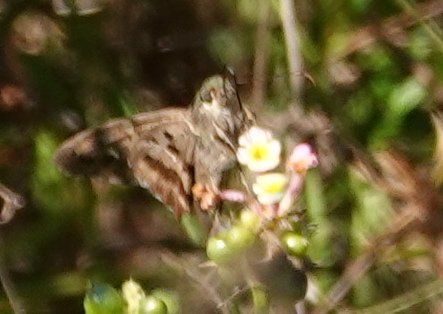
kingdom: Animalia
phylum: Arthropoda
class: Insecta
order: Lepidoptera
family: Hesperiidae
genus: Urbanus
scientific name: Urbanus proteus
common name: Long-tailed Skipper
